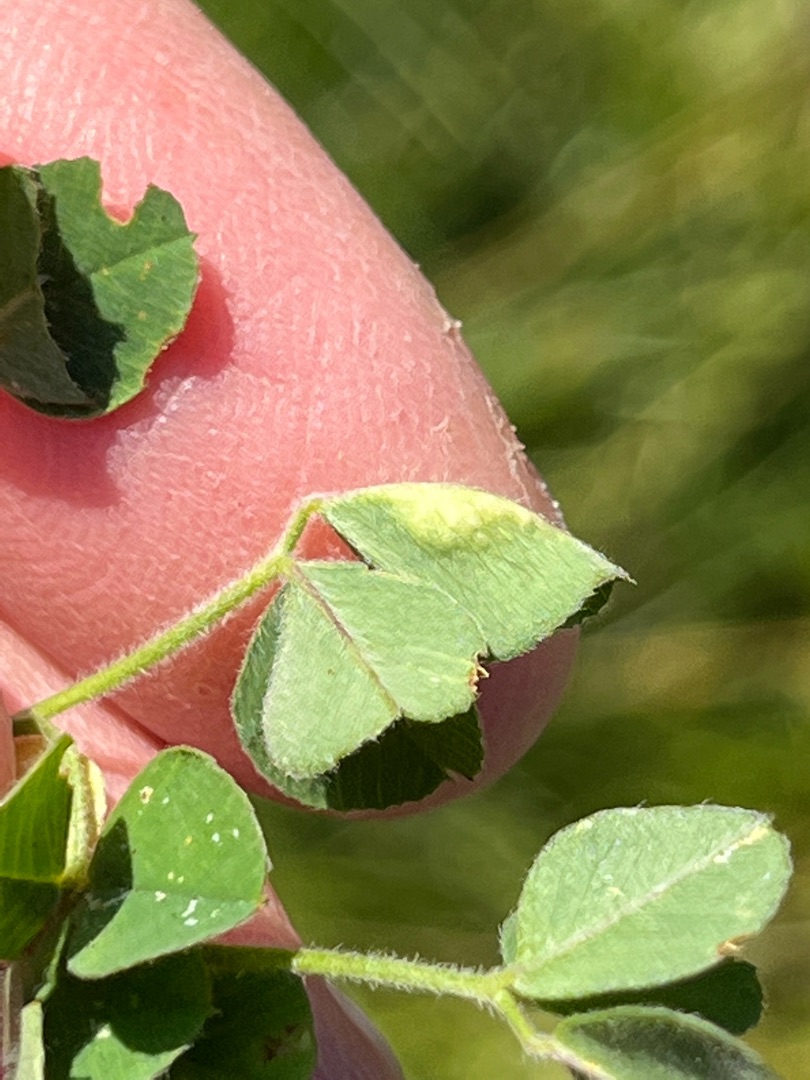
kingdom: Animalia
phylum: Arthropoda
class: Insecta
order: Diptera
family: Cecidomyiidae
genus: Jaapiella
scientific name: Jaapiella jaapiana
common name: Sneglebælgbladgalmyg
